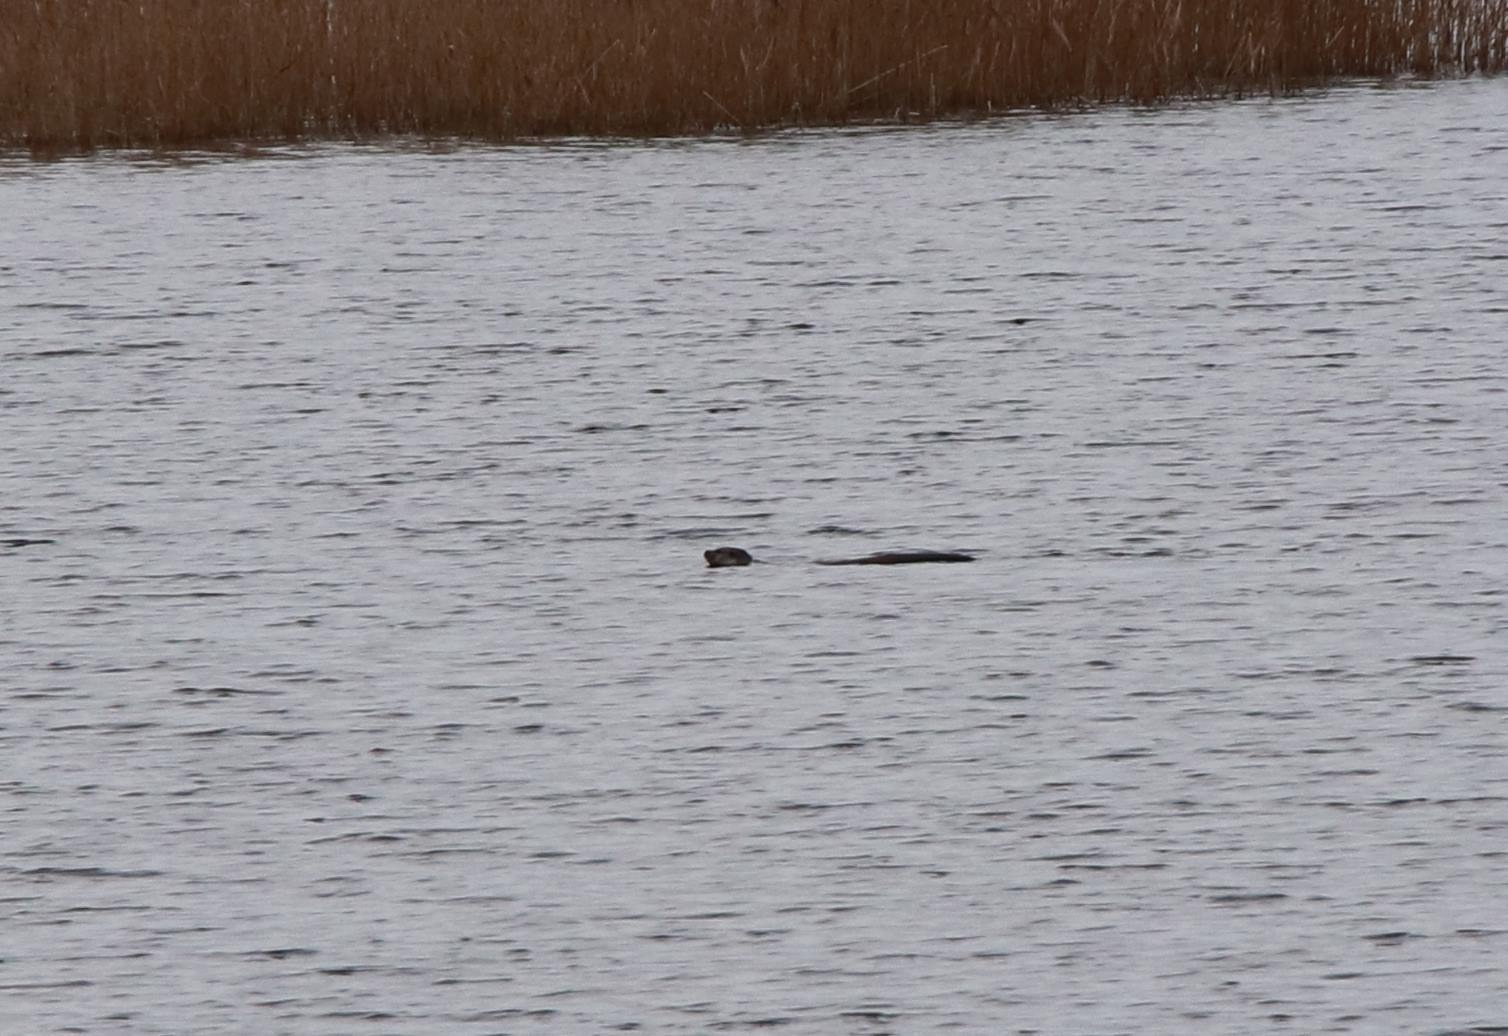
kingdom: Animalia
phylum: Chordata
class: Mammalia
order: Carnivora
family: Mustelidae
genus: Lutra
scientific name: Lutra lutra
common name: Odder
